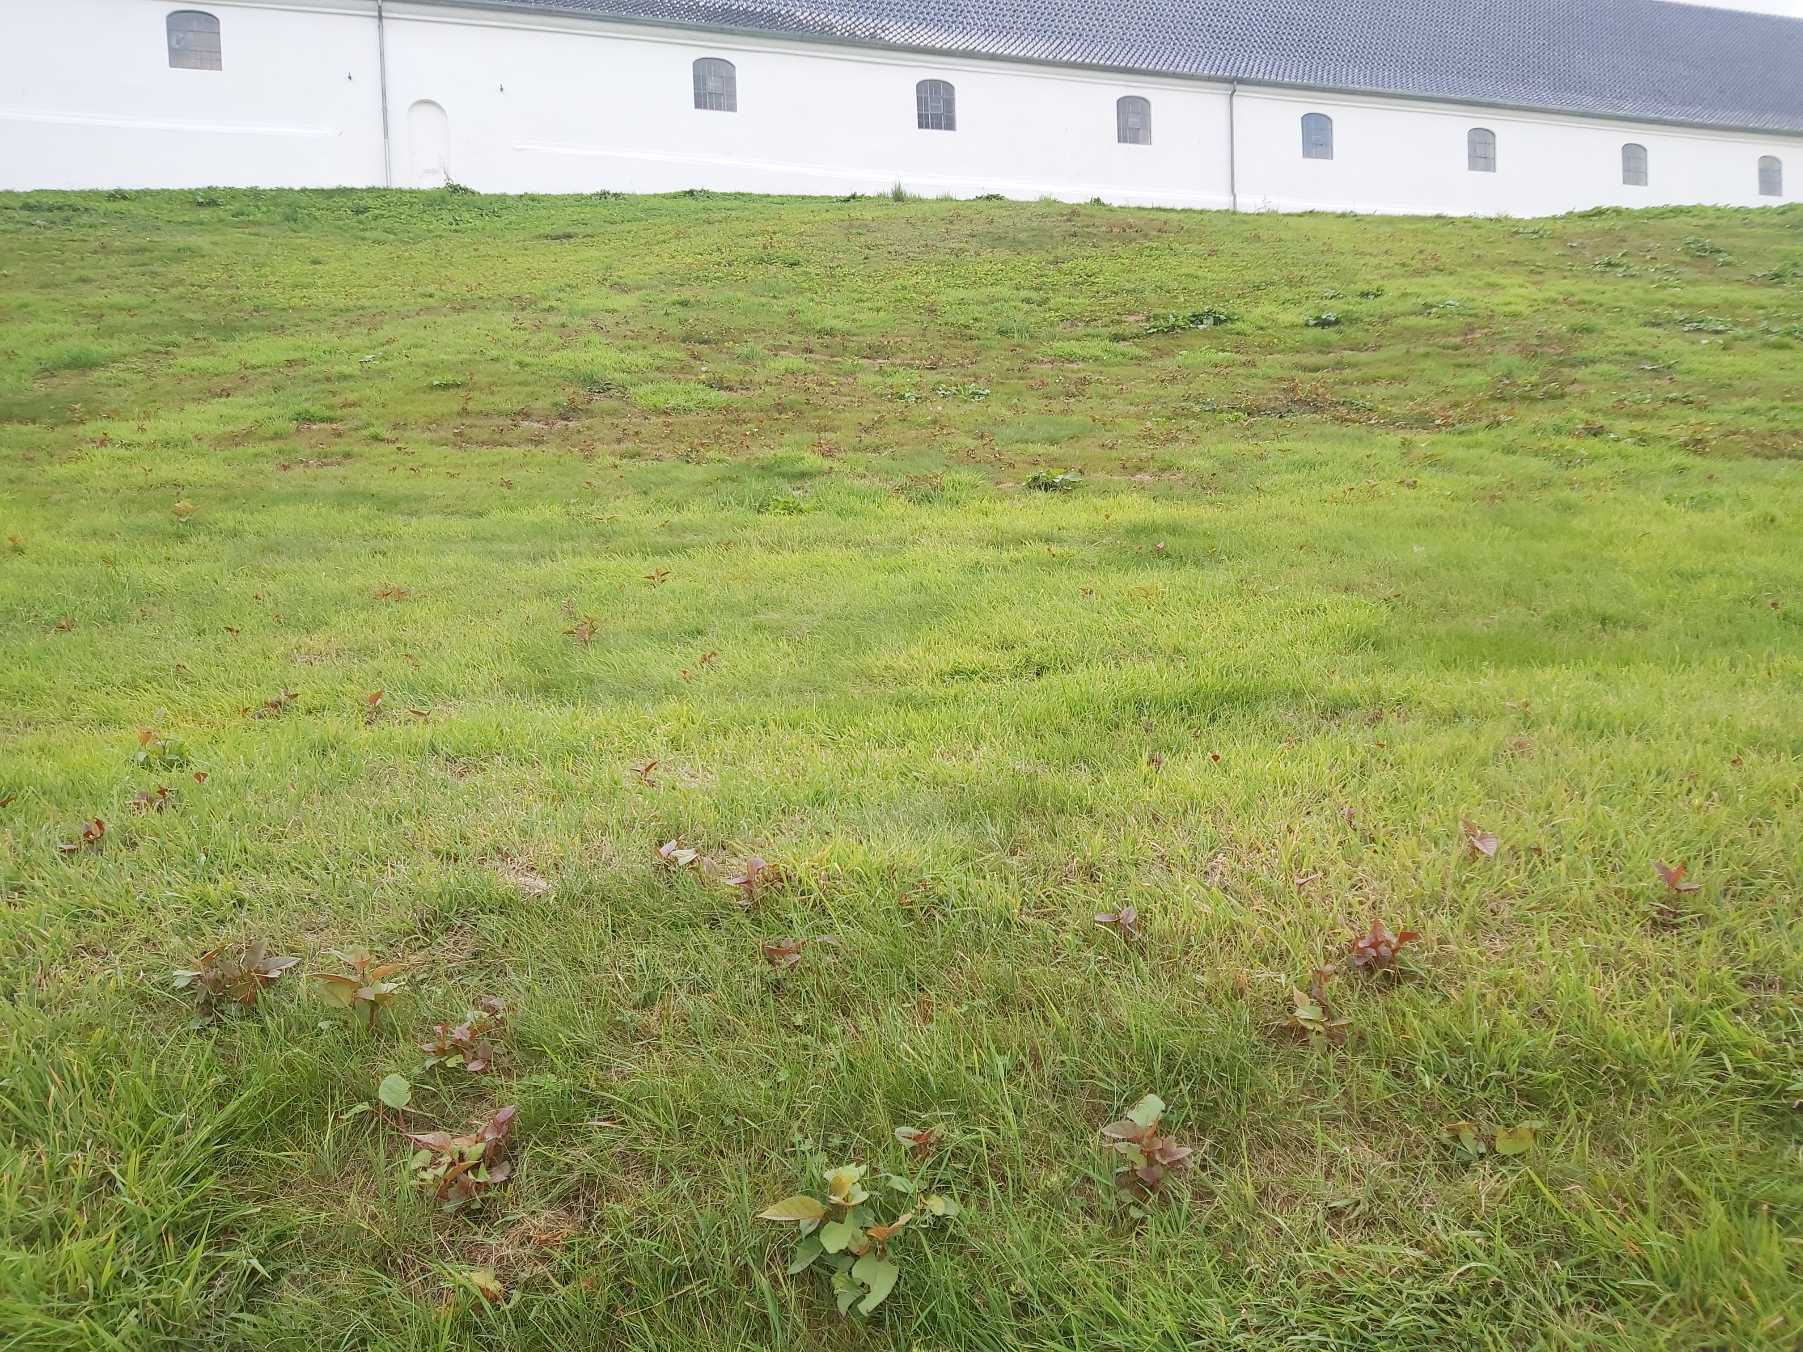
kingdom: Plantae
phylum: Tracheophyta
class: Magnoliopsida
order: Caryophyllales
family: Polygonaceae
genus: Reynoutria
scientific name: Reynoutria japonica
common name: Japan-pileurt
